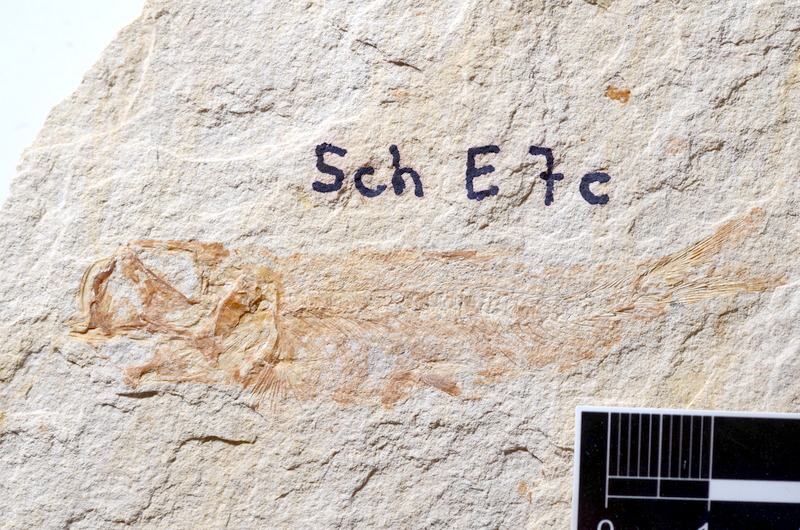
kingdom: Animalia
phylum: Chordata
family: Ascalaboidae
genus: Tharsis
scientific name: Tharsis dubius
